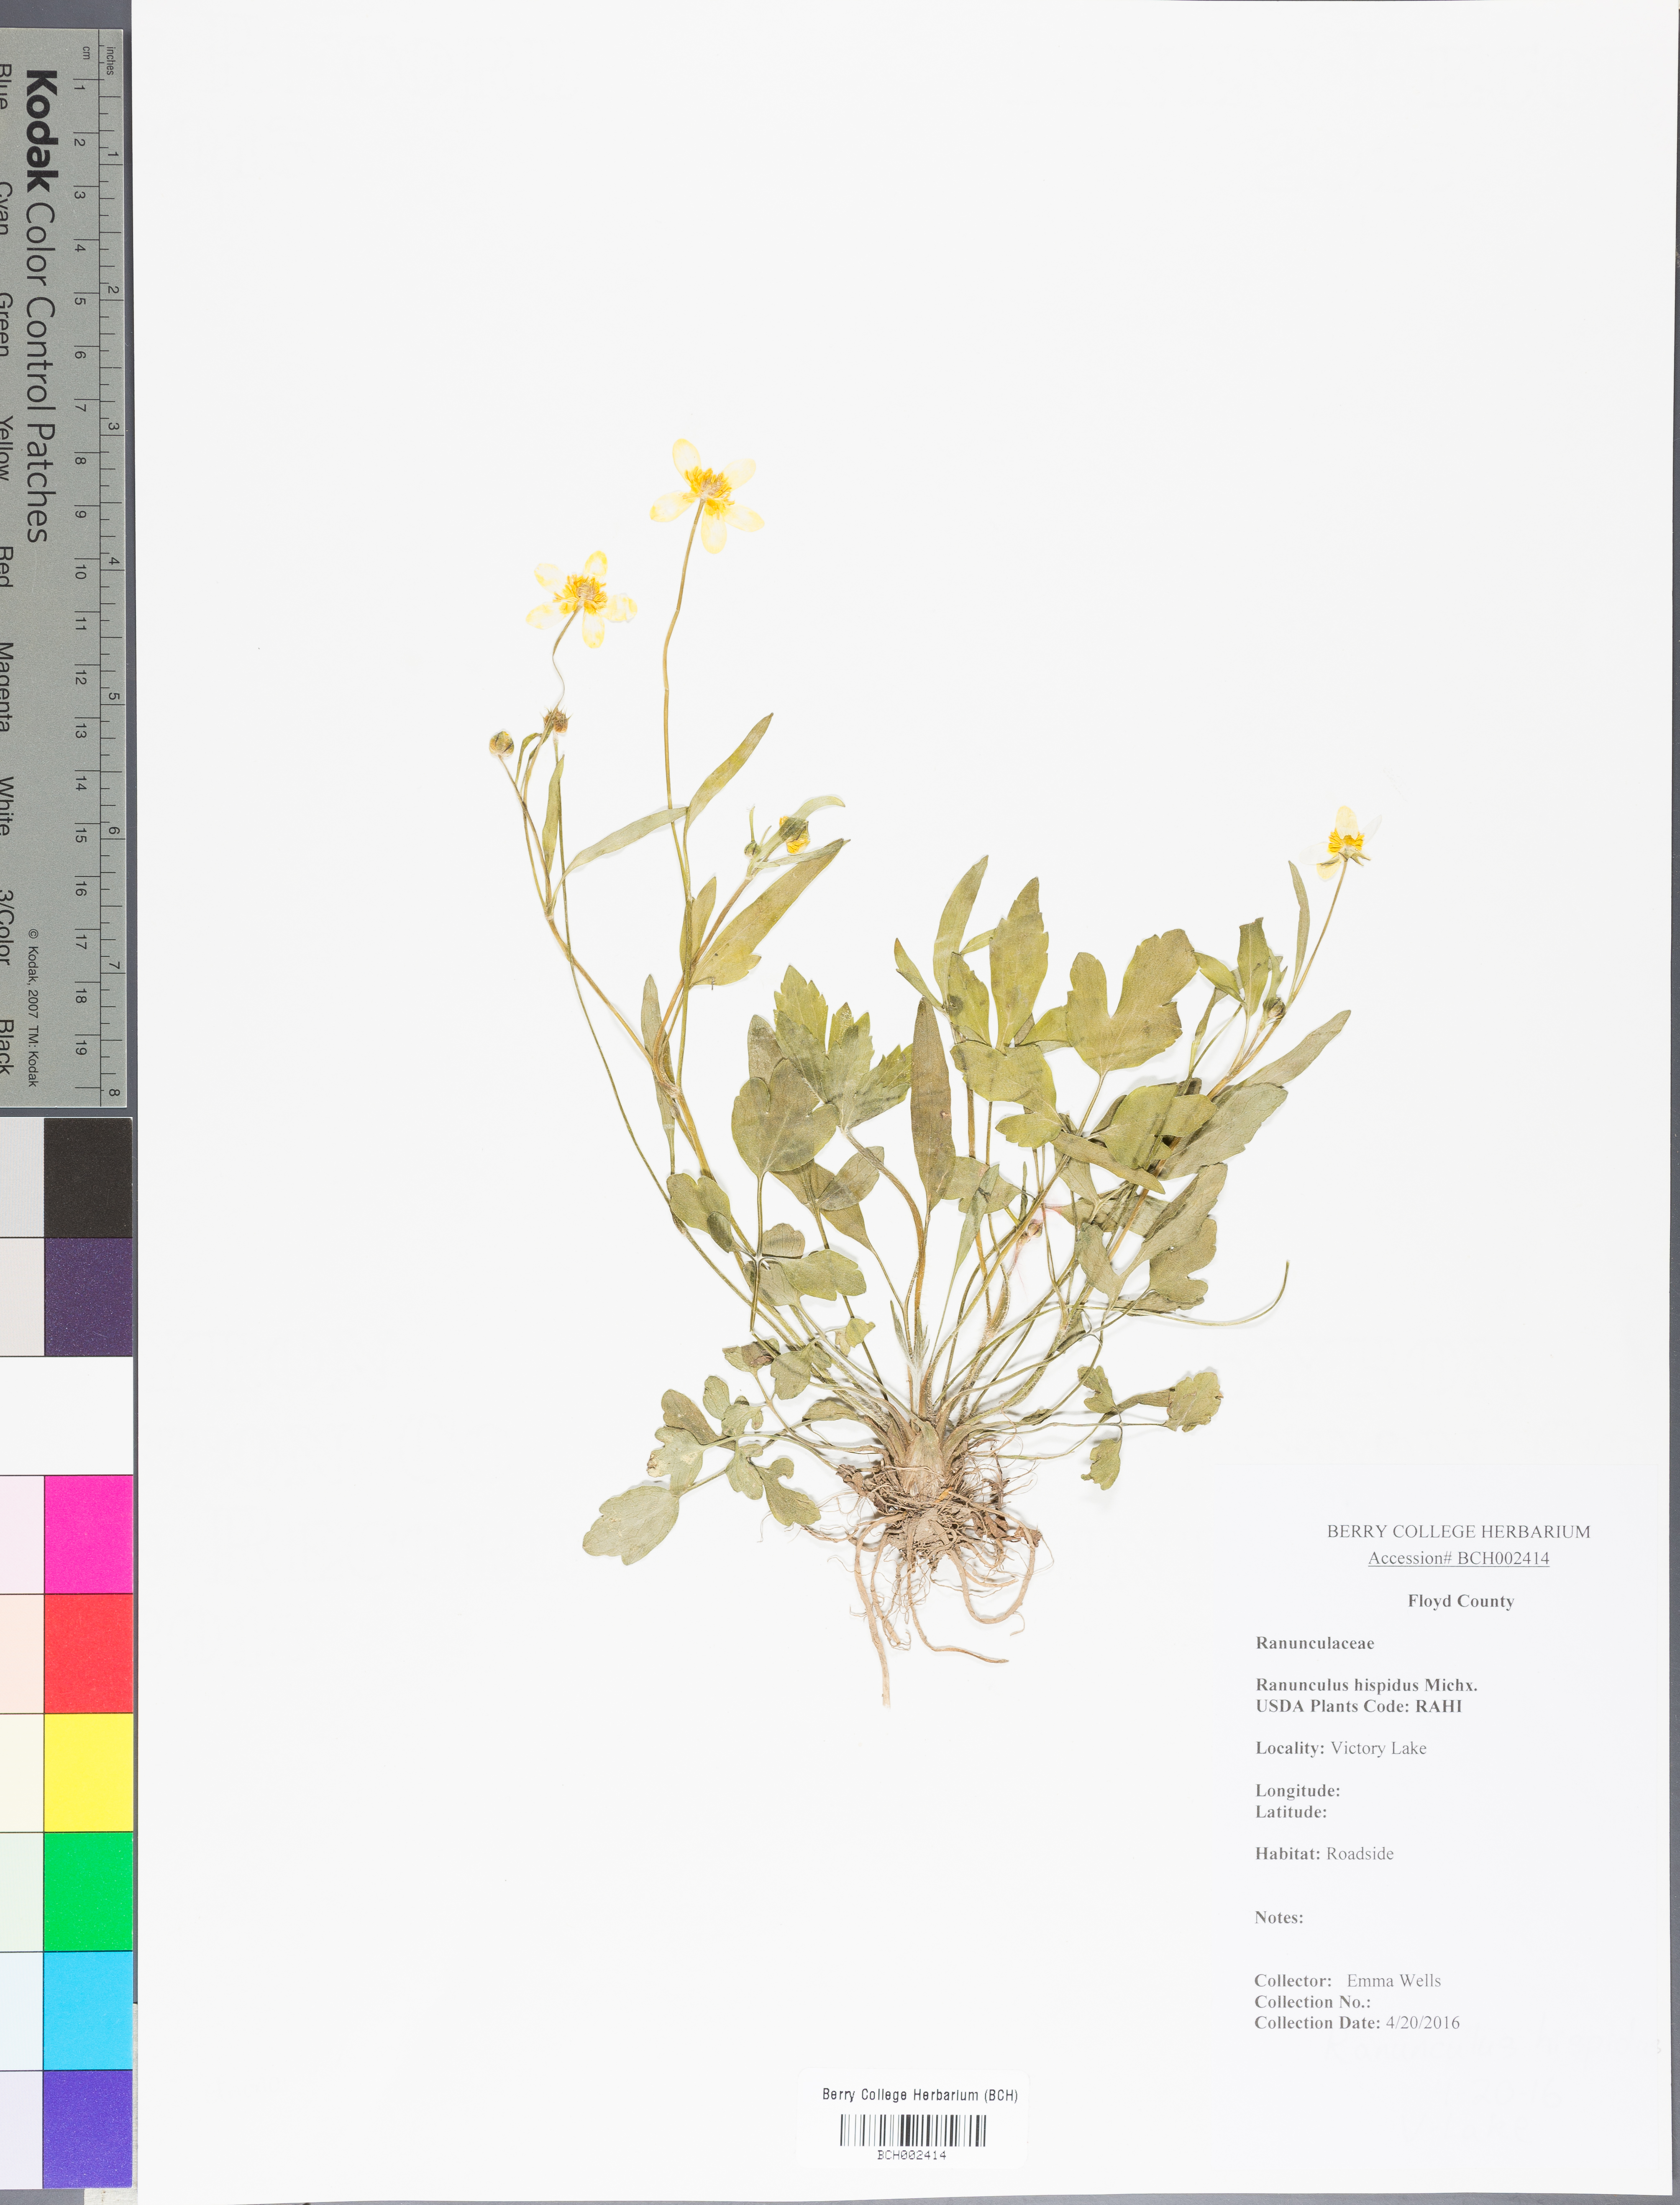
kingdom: Plantae
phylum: Tracheophyta
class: Magnoliopsida
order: Ranunculales
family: Ranunculaceae
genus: Ranunculus
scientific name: Ranunculus hispidus
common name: Bristly buttercup
